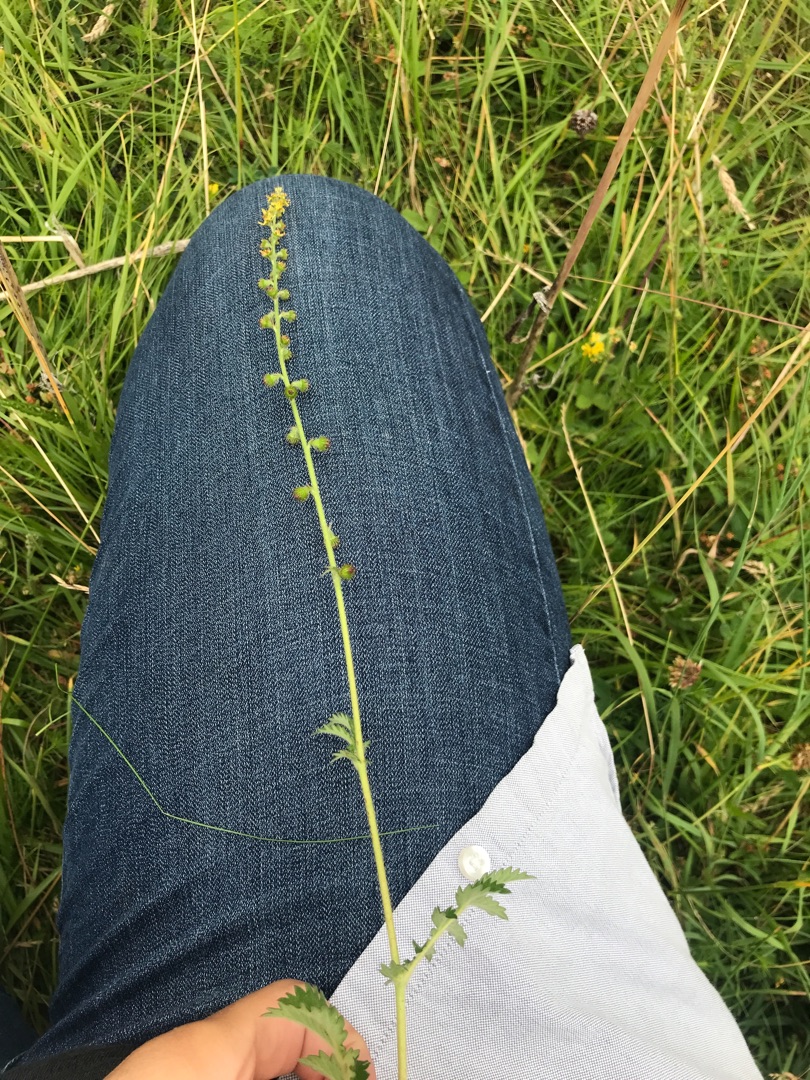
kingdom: Plantae
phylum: Tracheophyta
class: Magnoliopsida
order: Rosales
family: Rosaceae
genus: Agrimonia
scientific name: Agrimonia eupatoria
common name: Almindelig agermåne
